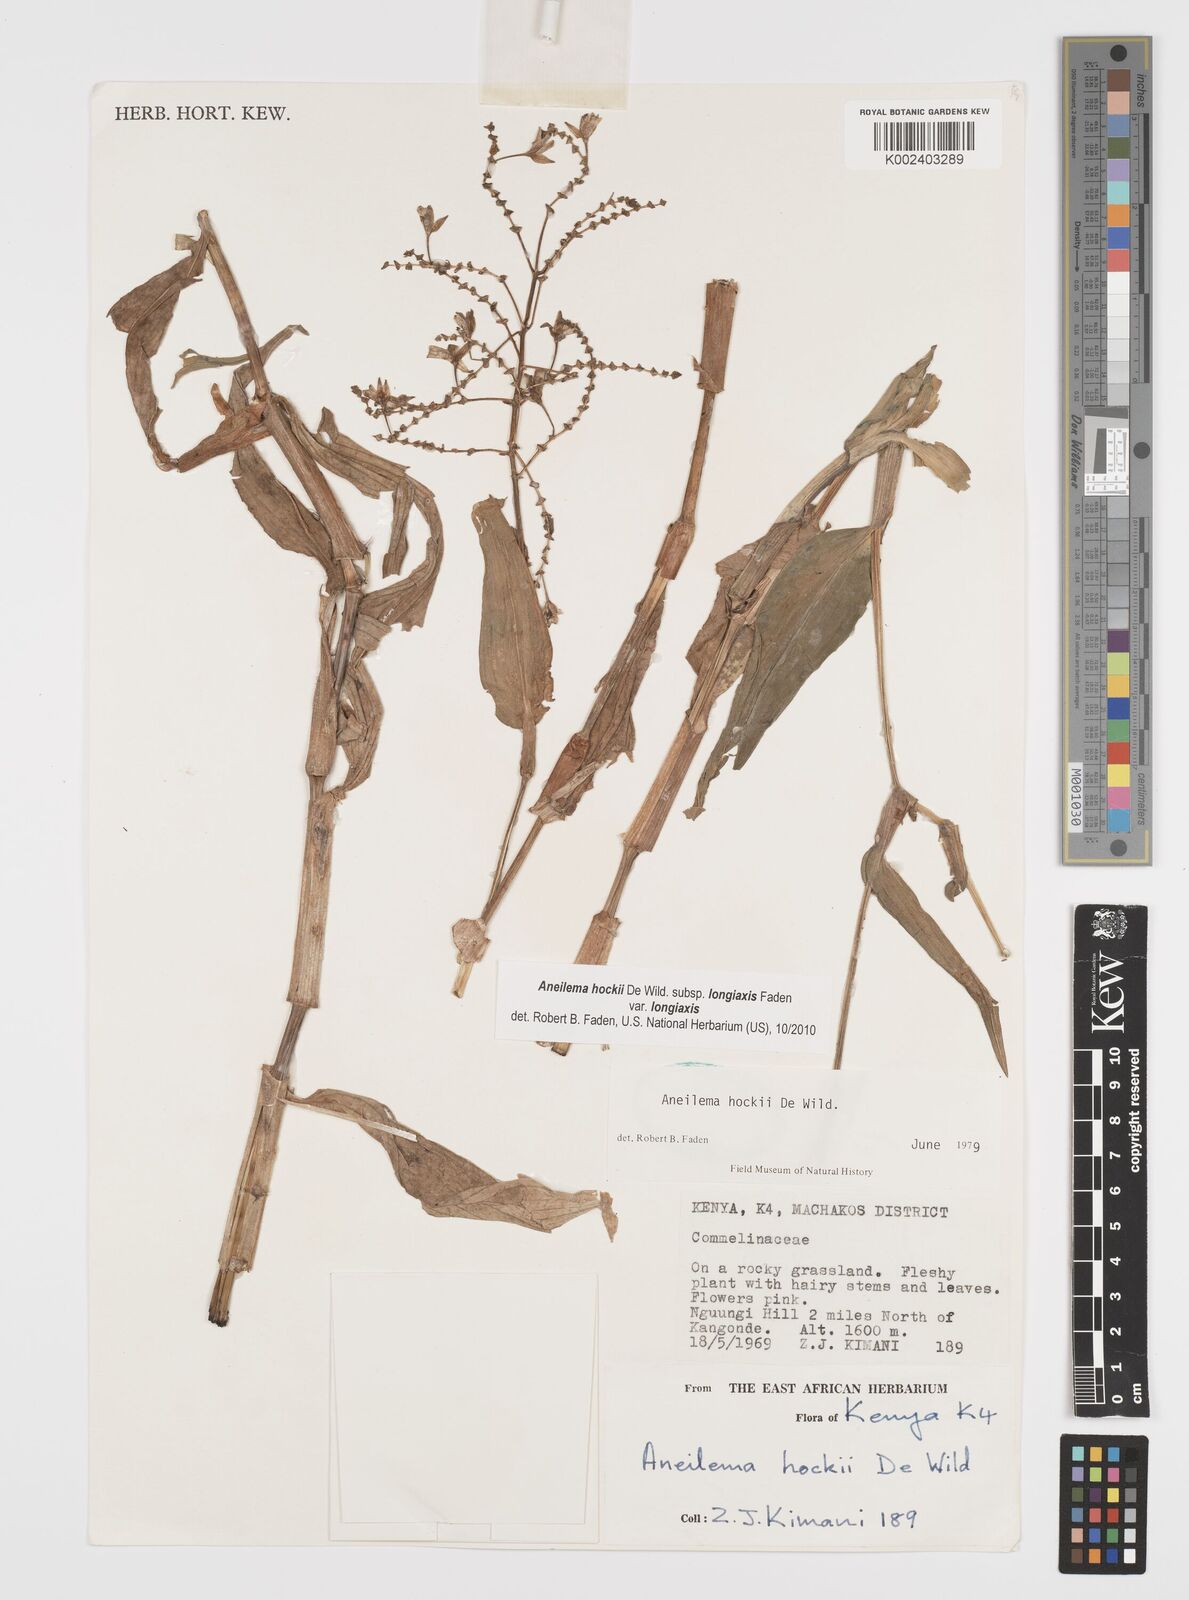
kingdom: Plantae
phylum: Tracheophyta
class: Liliopsida
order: Commelinales
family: Commelinaceae
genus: Aneilema
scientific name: Aneilema hockii
